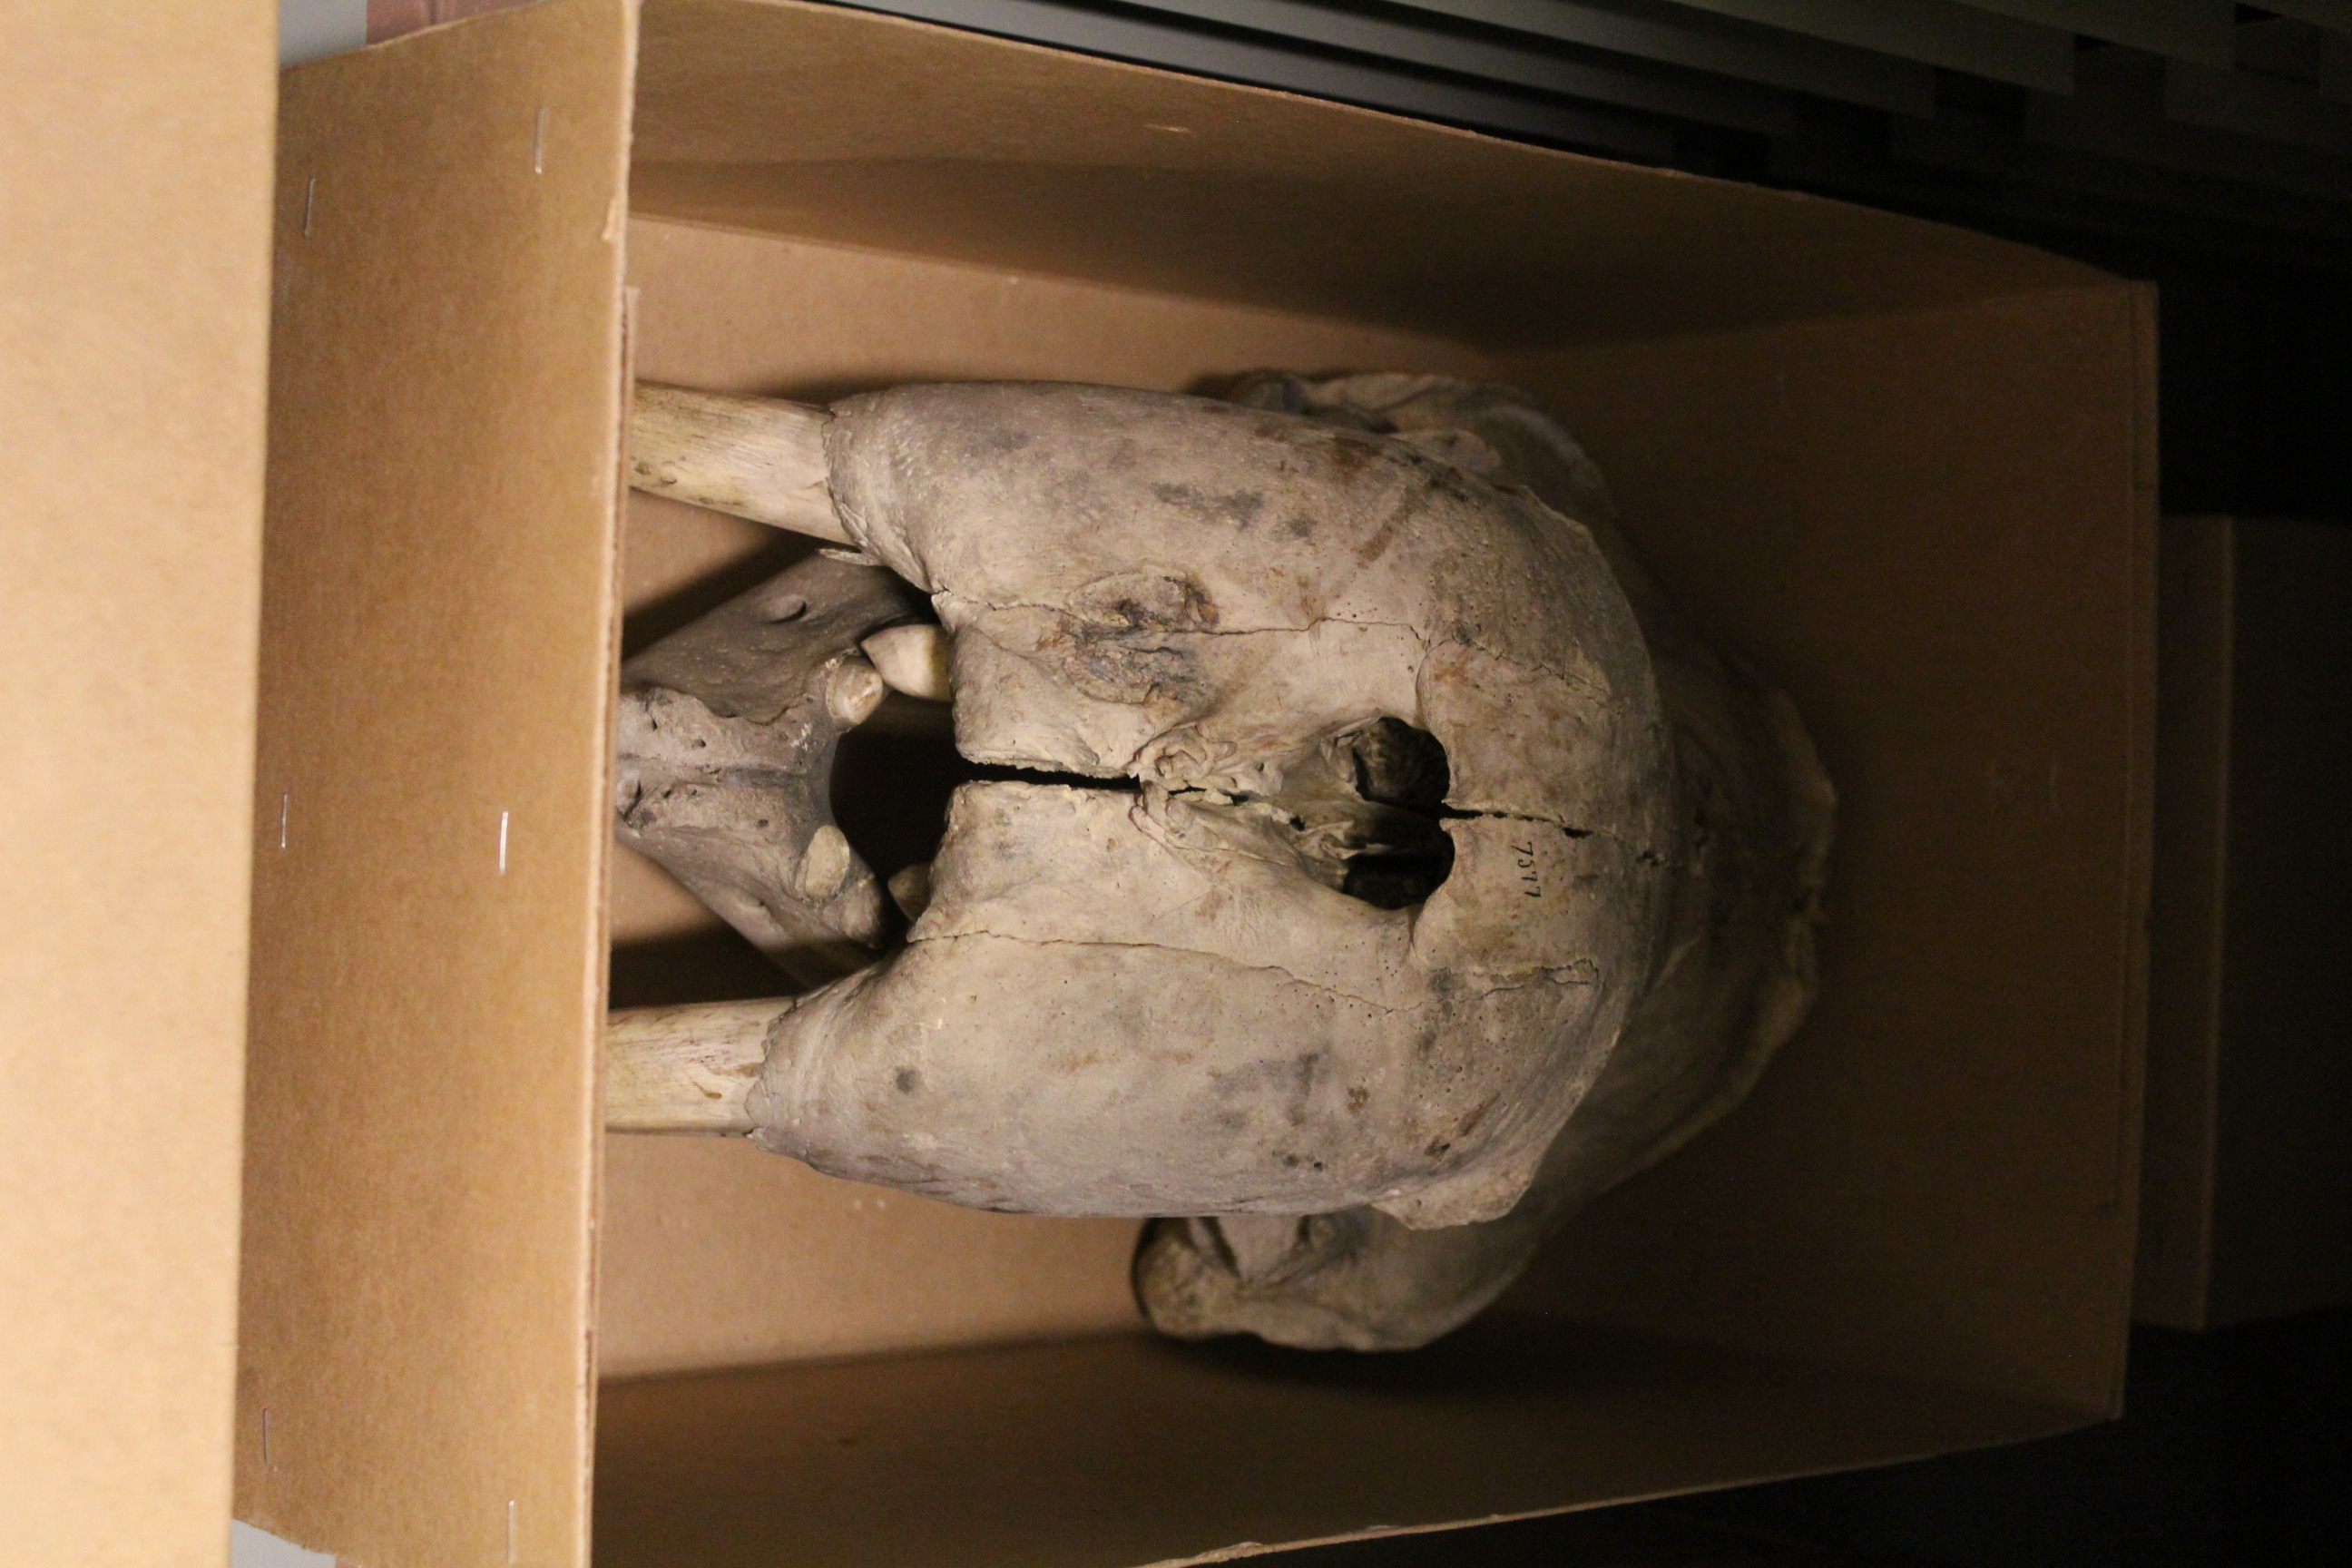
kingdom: Animalia
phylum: Chordata
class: Mammalia
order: Carnivora
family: Odobenidae
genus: Odobenus
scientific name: Odobenus rosmarus
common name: Walrus
